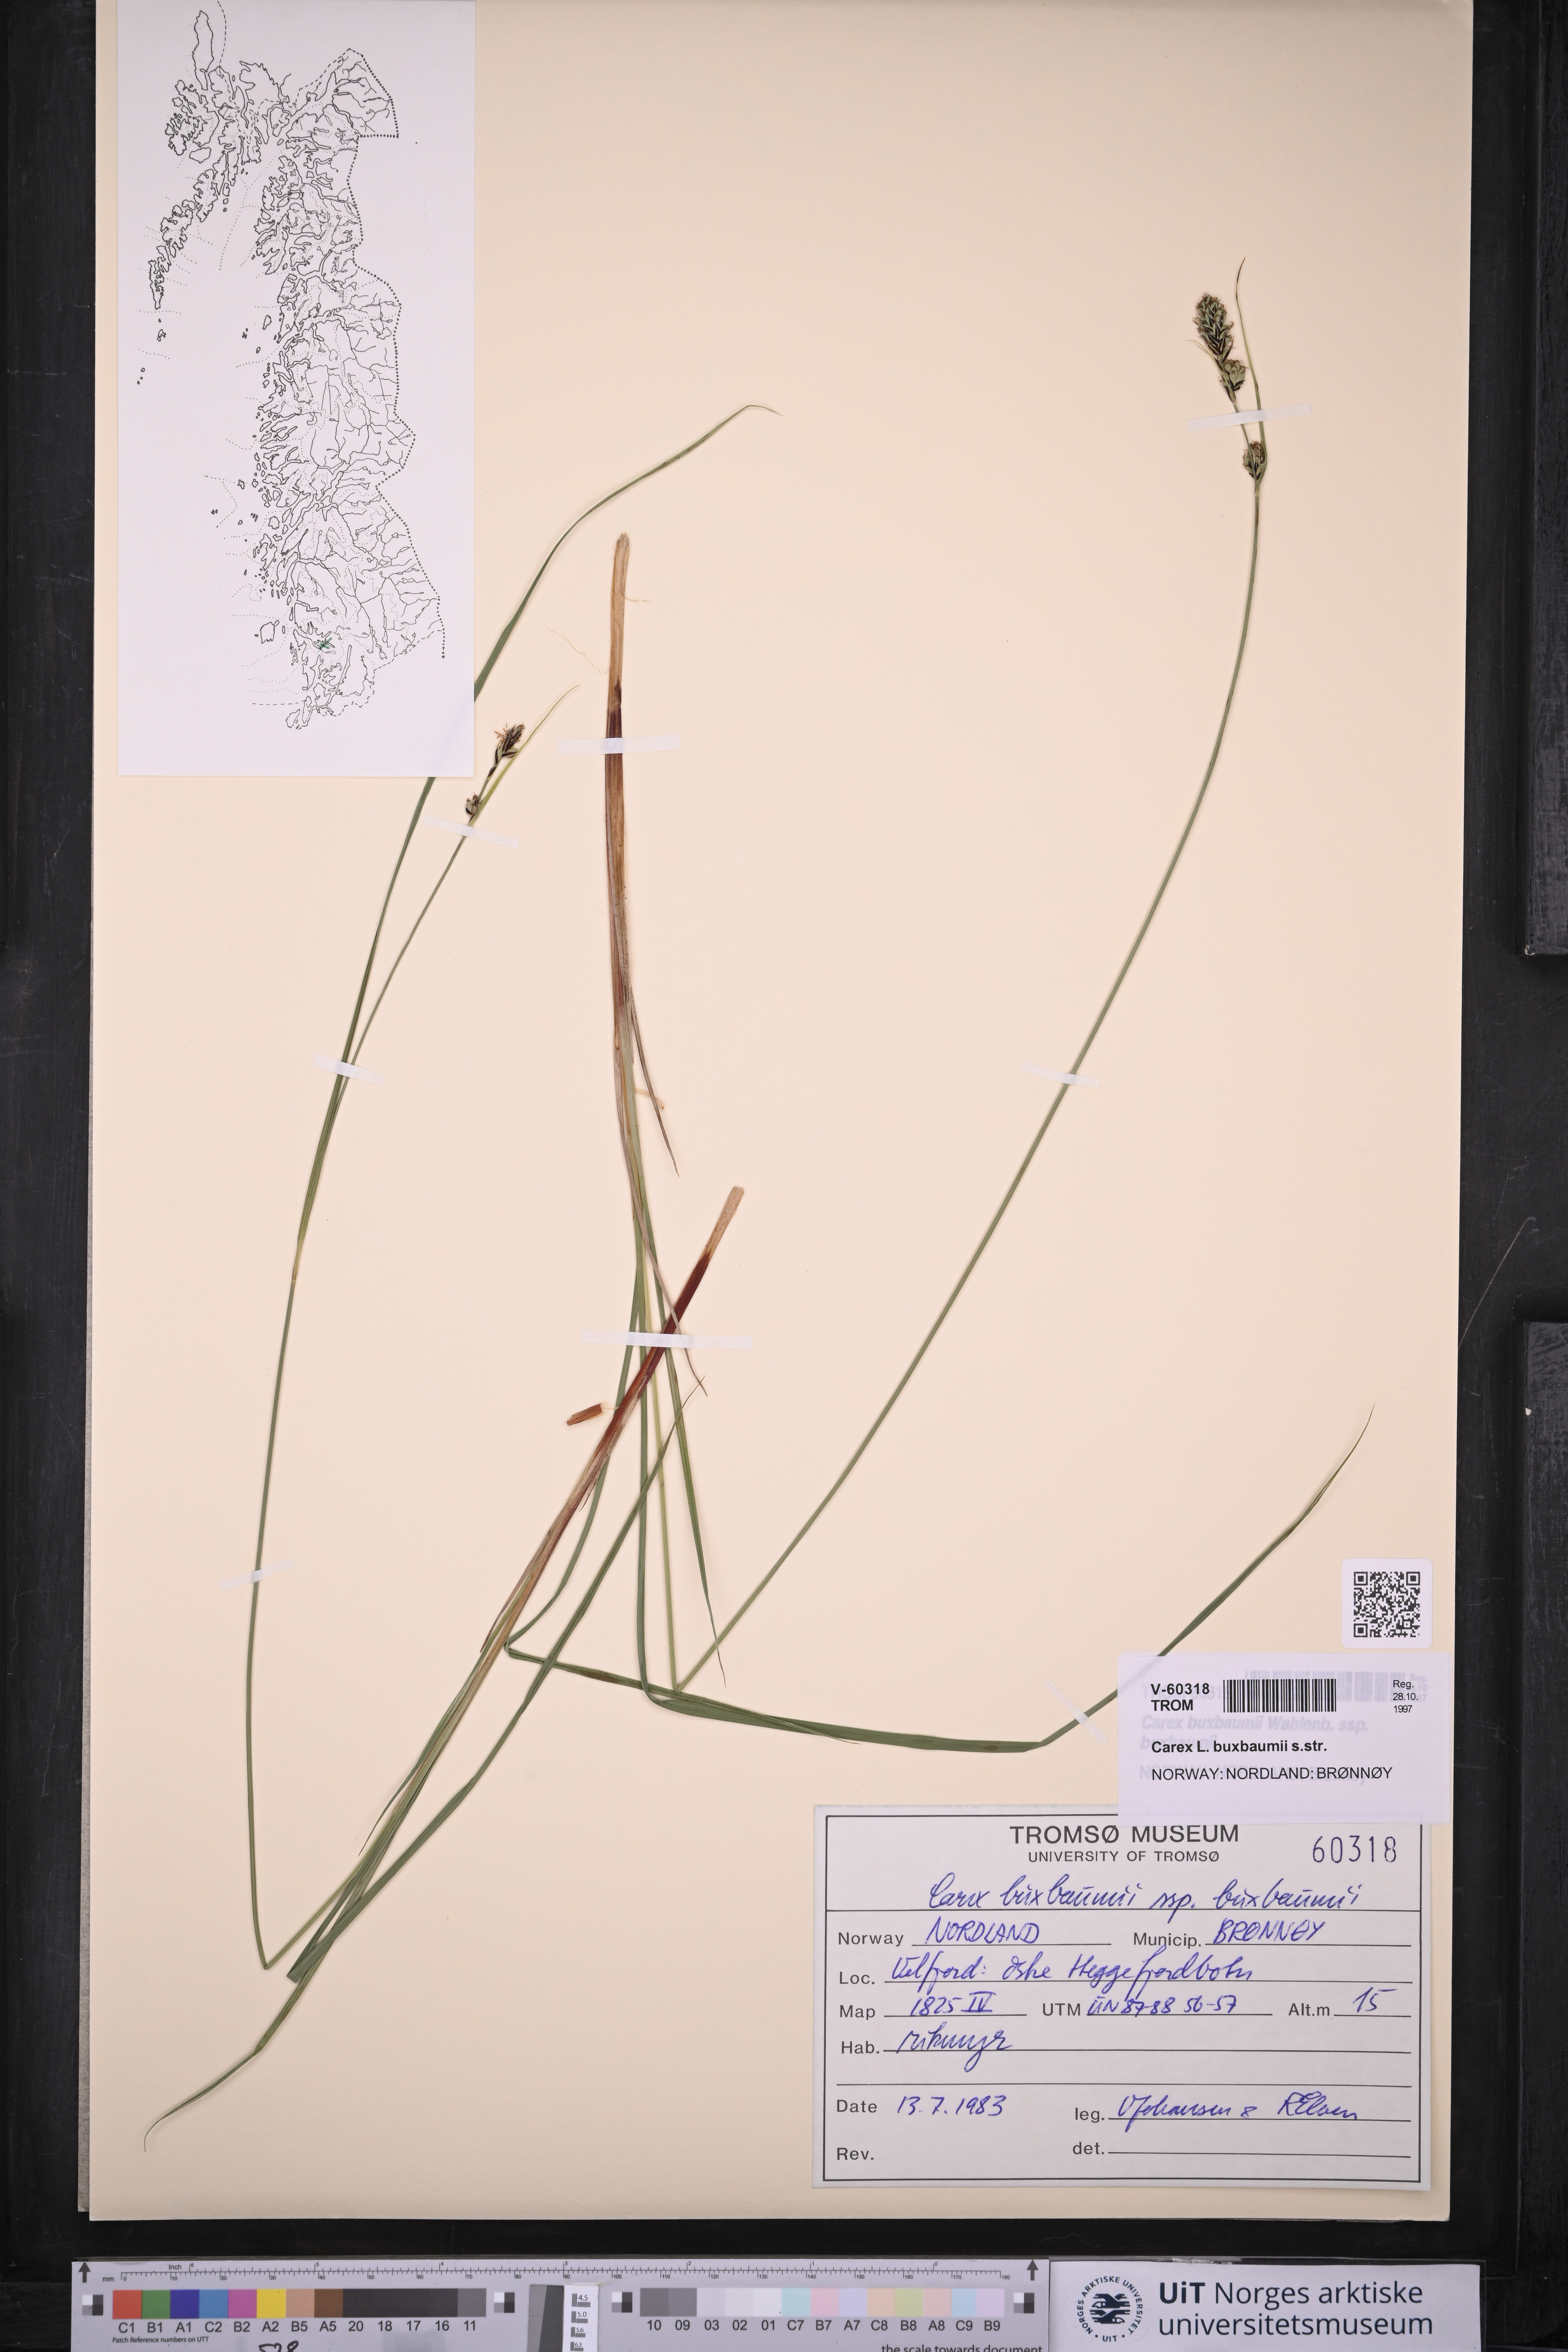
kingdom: Plantae
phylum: Tracheophyta
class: Liliopsida
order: Poales
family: Cyperaceae
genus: Carex
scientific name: Carex buxbaumii
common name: Club sedge
